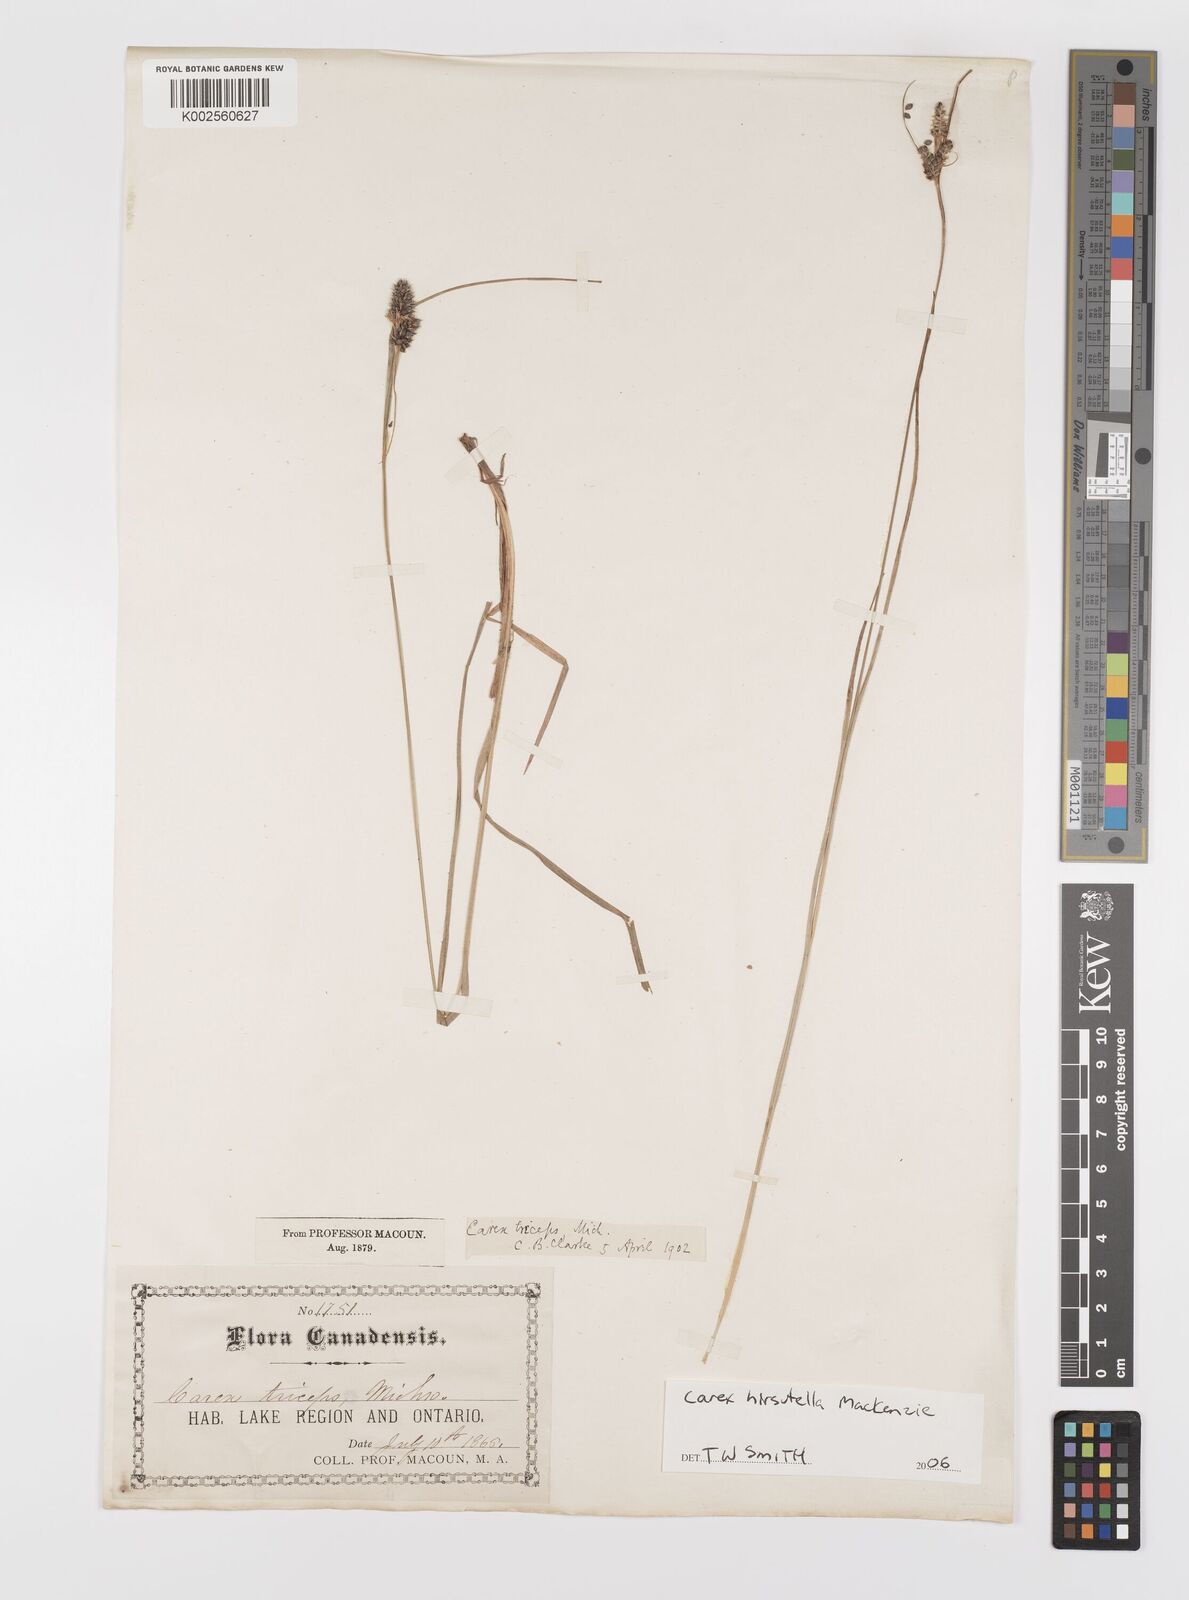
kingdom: Plantae
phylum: Tracheophyta
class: Liliopsida
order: Poales
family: Cyperaceae
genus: Carex
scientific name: Carex hirsutella
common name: Fuzzy wuzzy sedge
